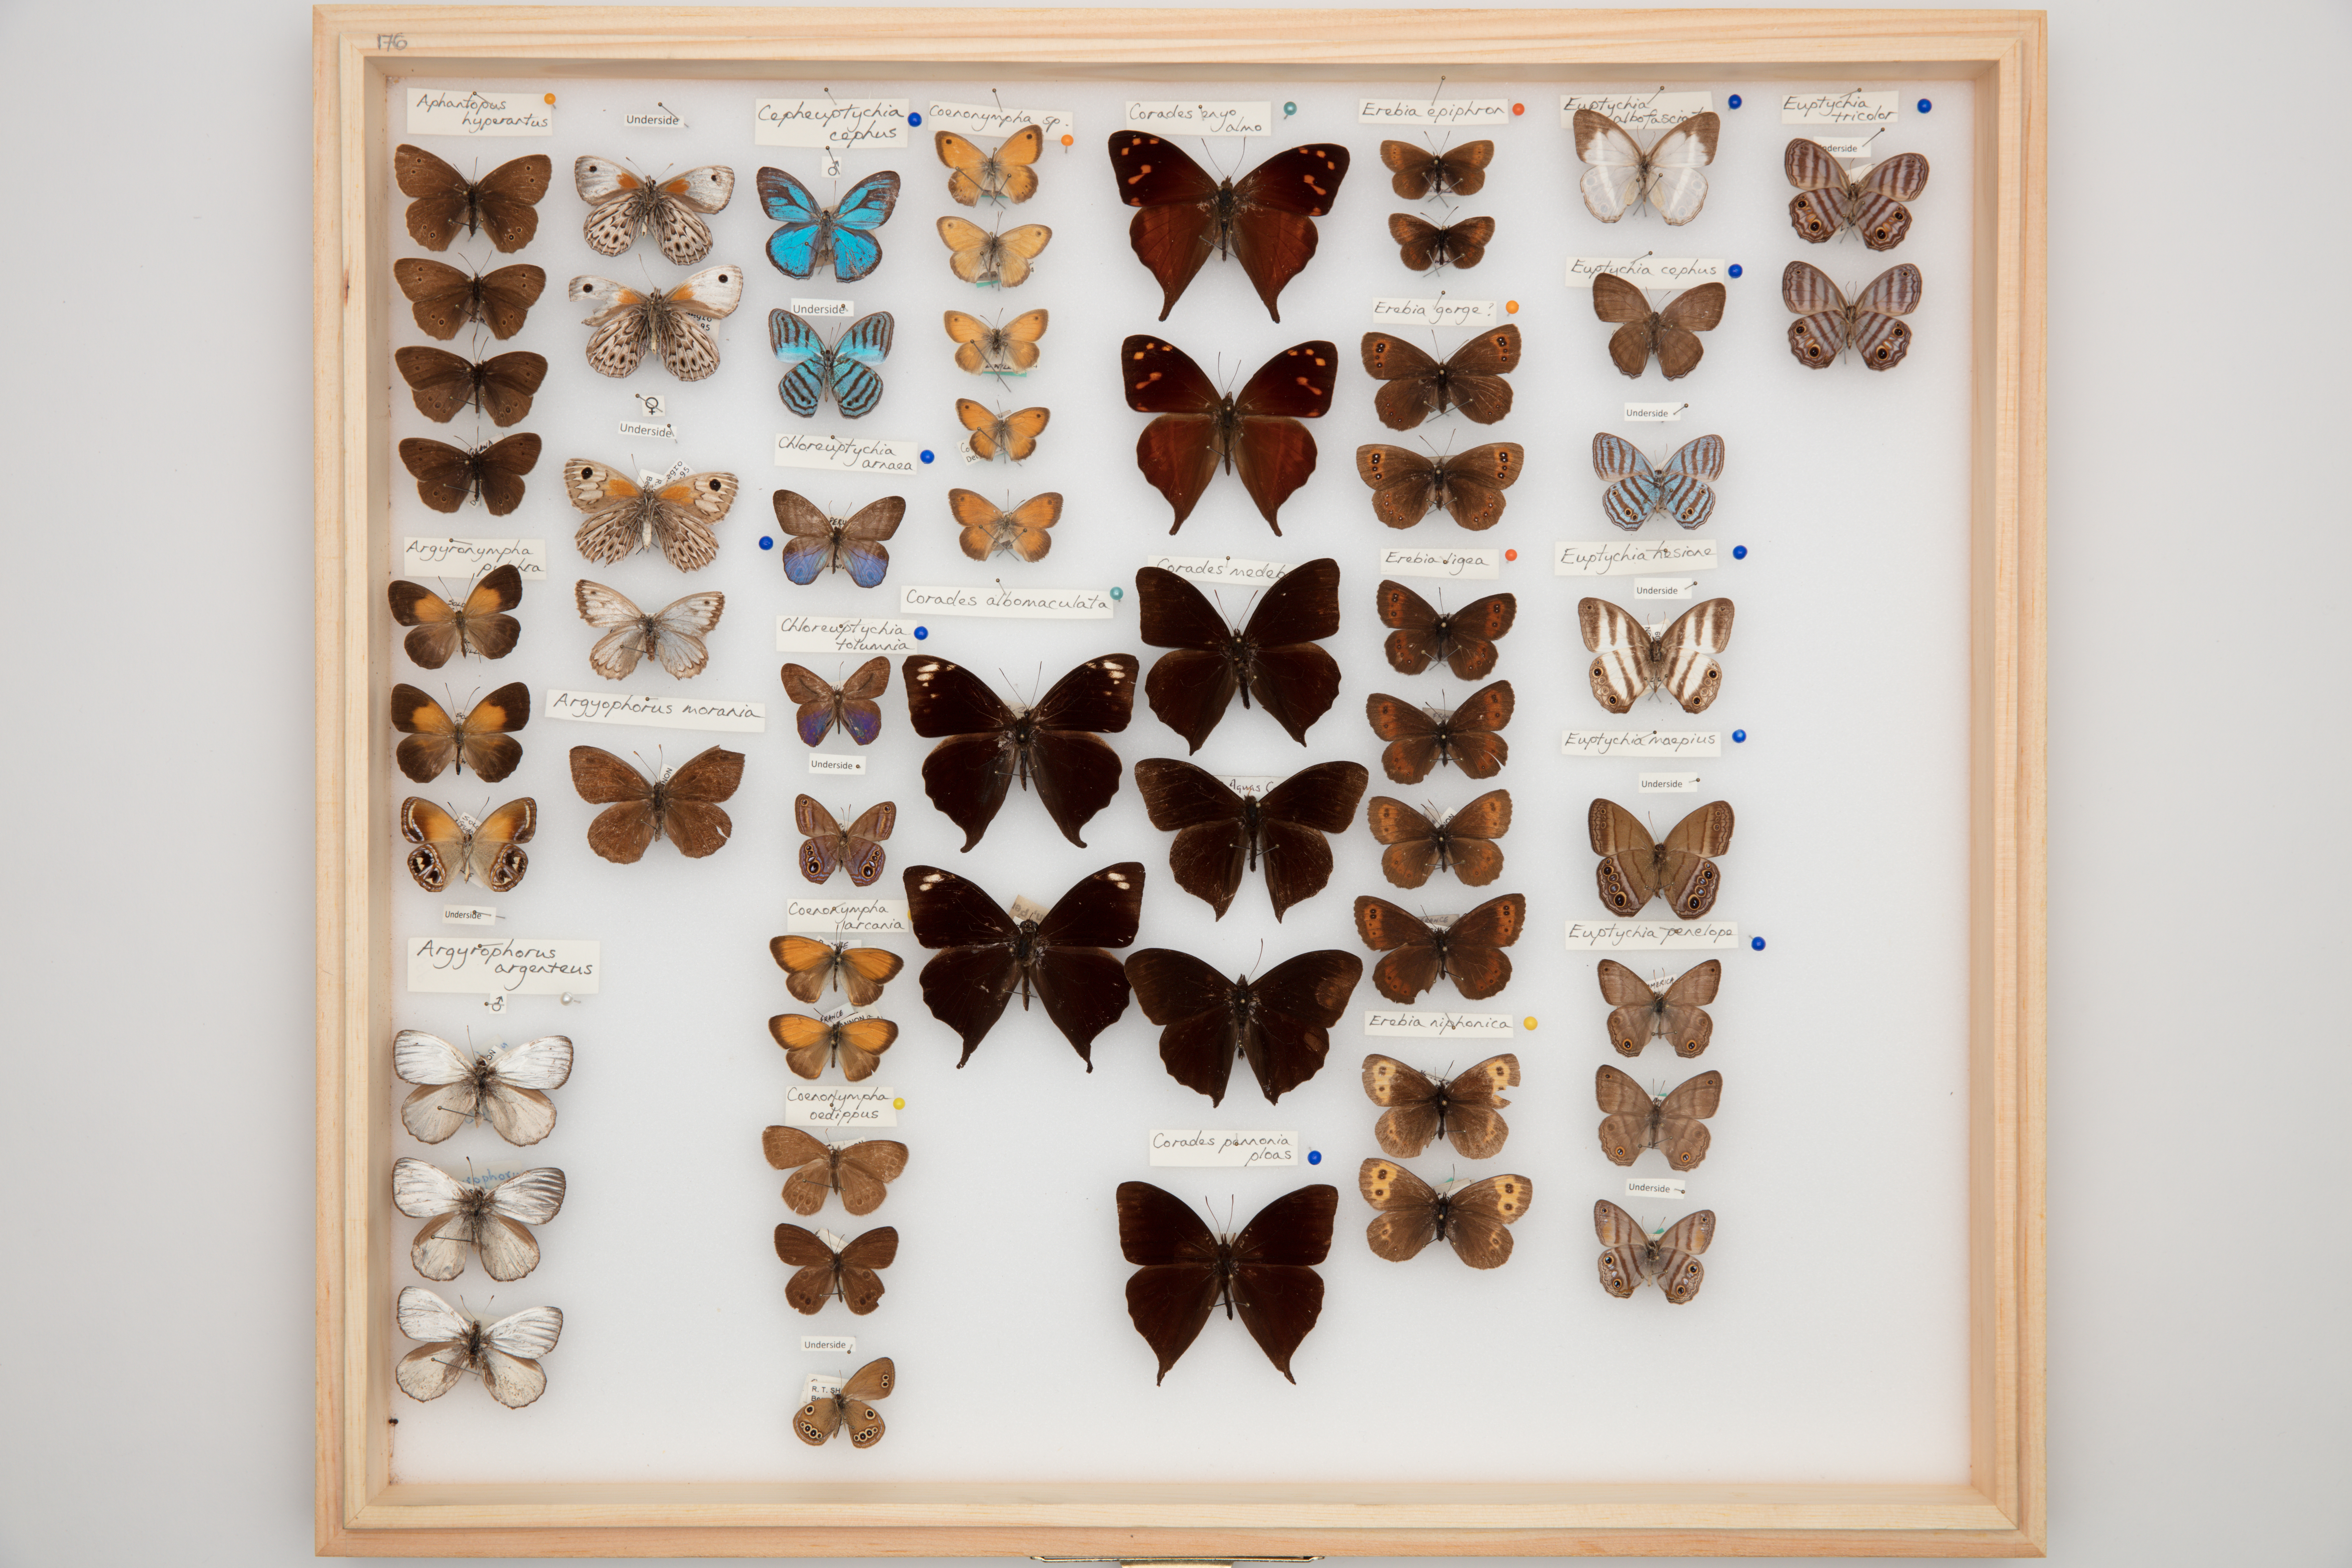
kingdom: Animalia
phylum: Arthropoda
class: Insecta
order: Lepidoptera
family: Nymphalidae
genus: Chloreuptychia
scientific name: Chloreuptychia arnaca
